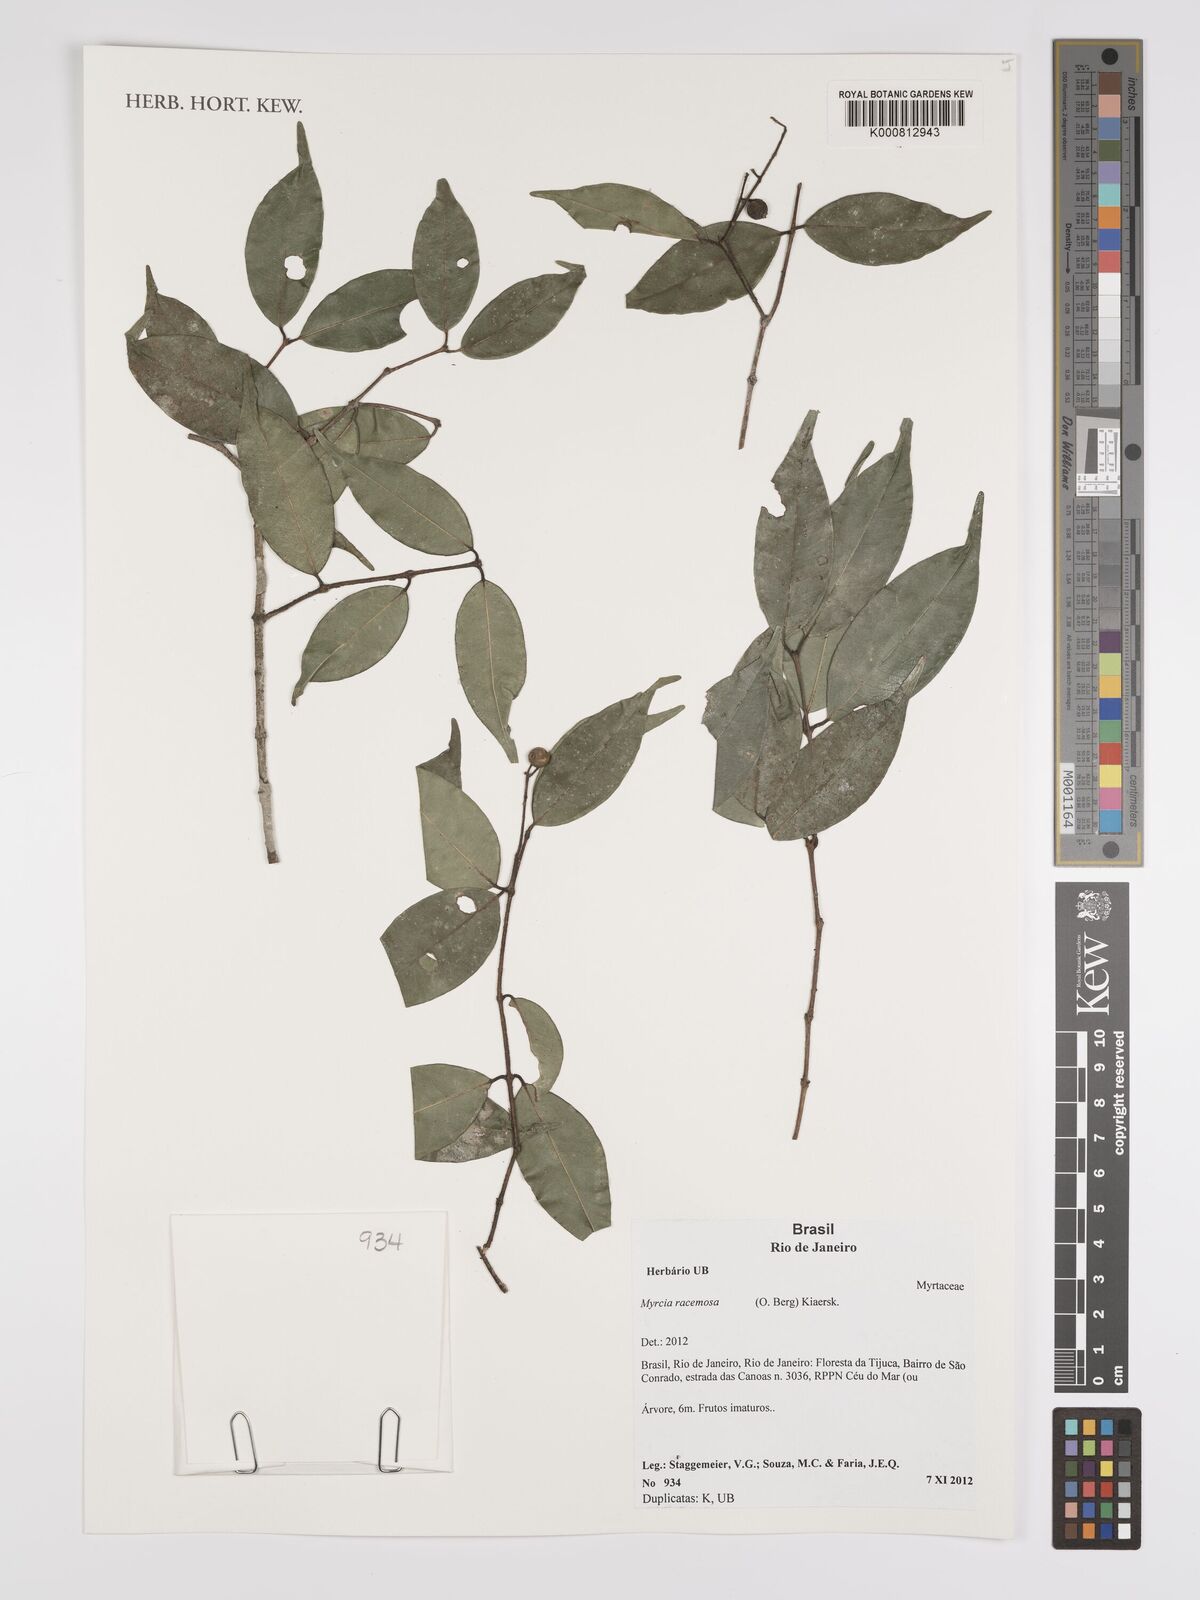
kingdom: Plantae
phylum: Tracheophyta
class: Magnoliopsida
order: Myrtales
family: Myrtaceae
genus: Myrcia
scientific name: Myrcia racemosa
